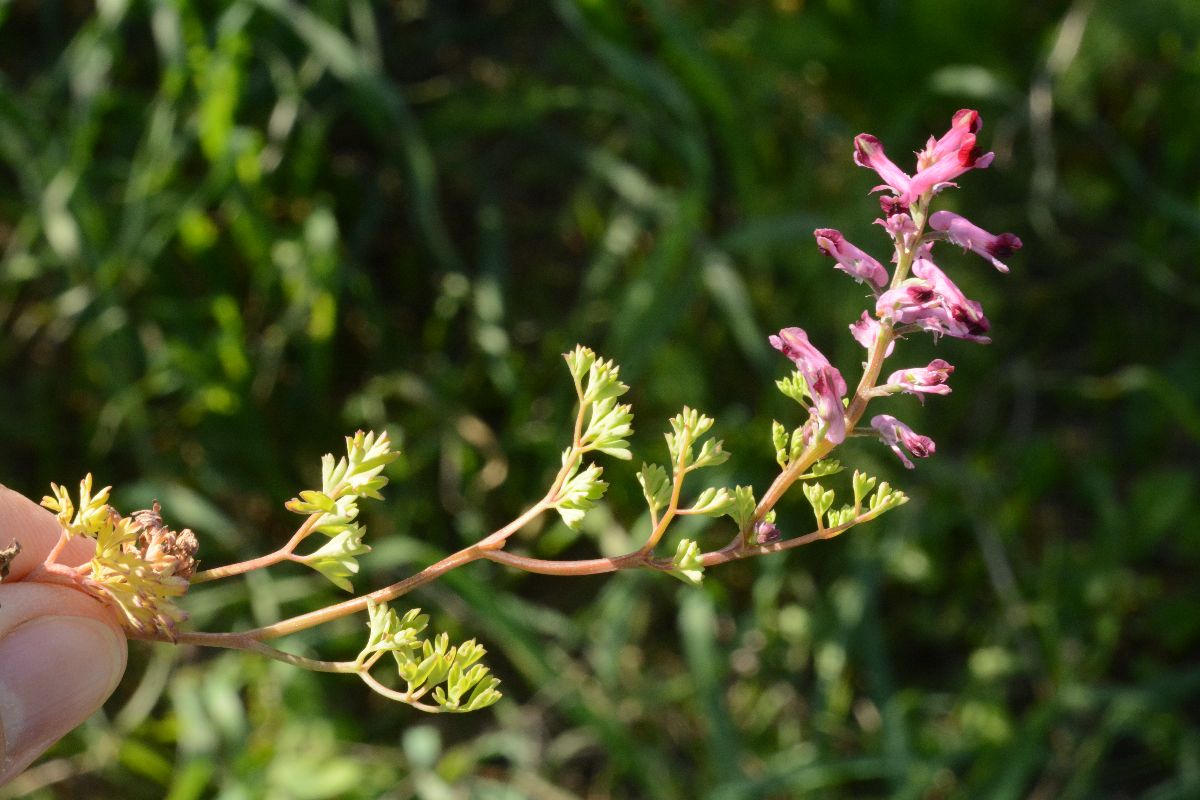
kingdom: Plantae
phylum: Tracheophyta
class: Magnoliopsida
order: Ranunculales
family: Papaveraceae
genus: Fumaria
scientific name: Fumaria officinalis
